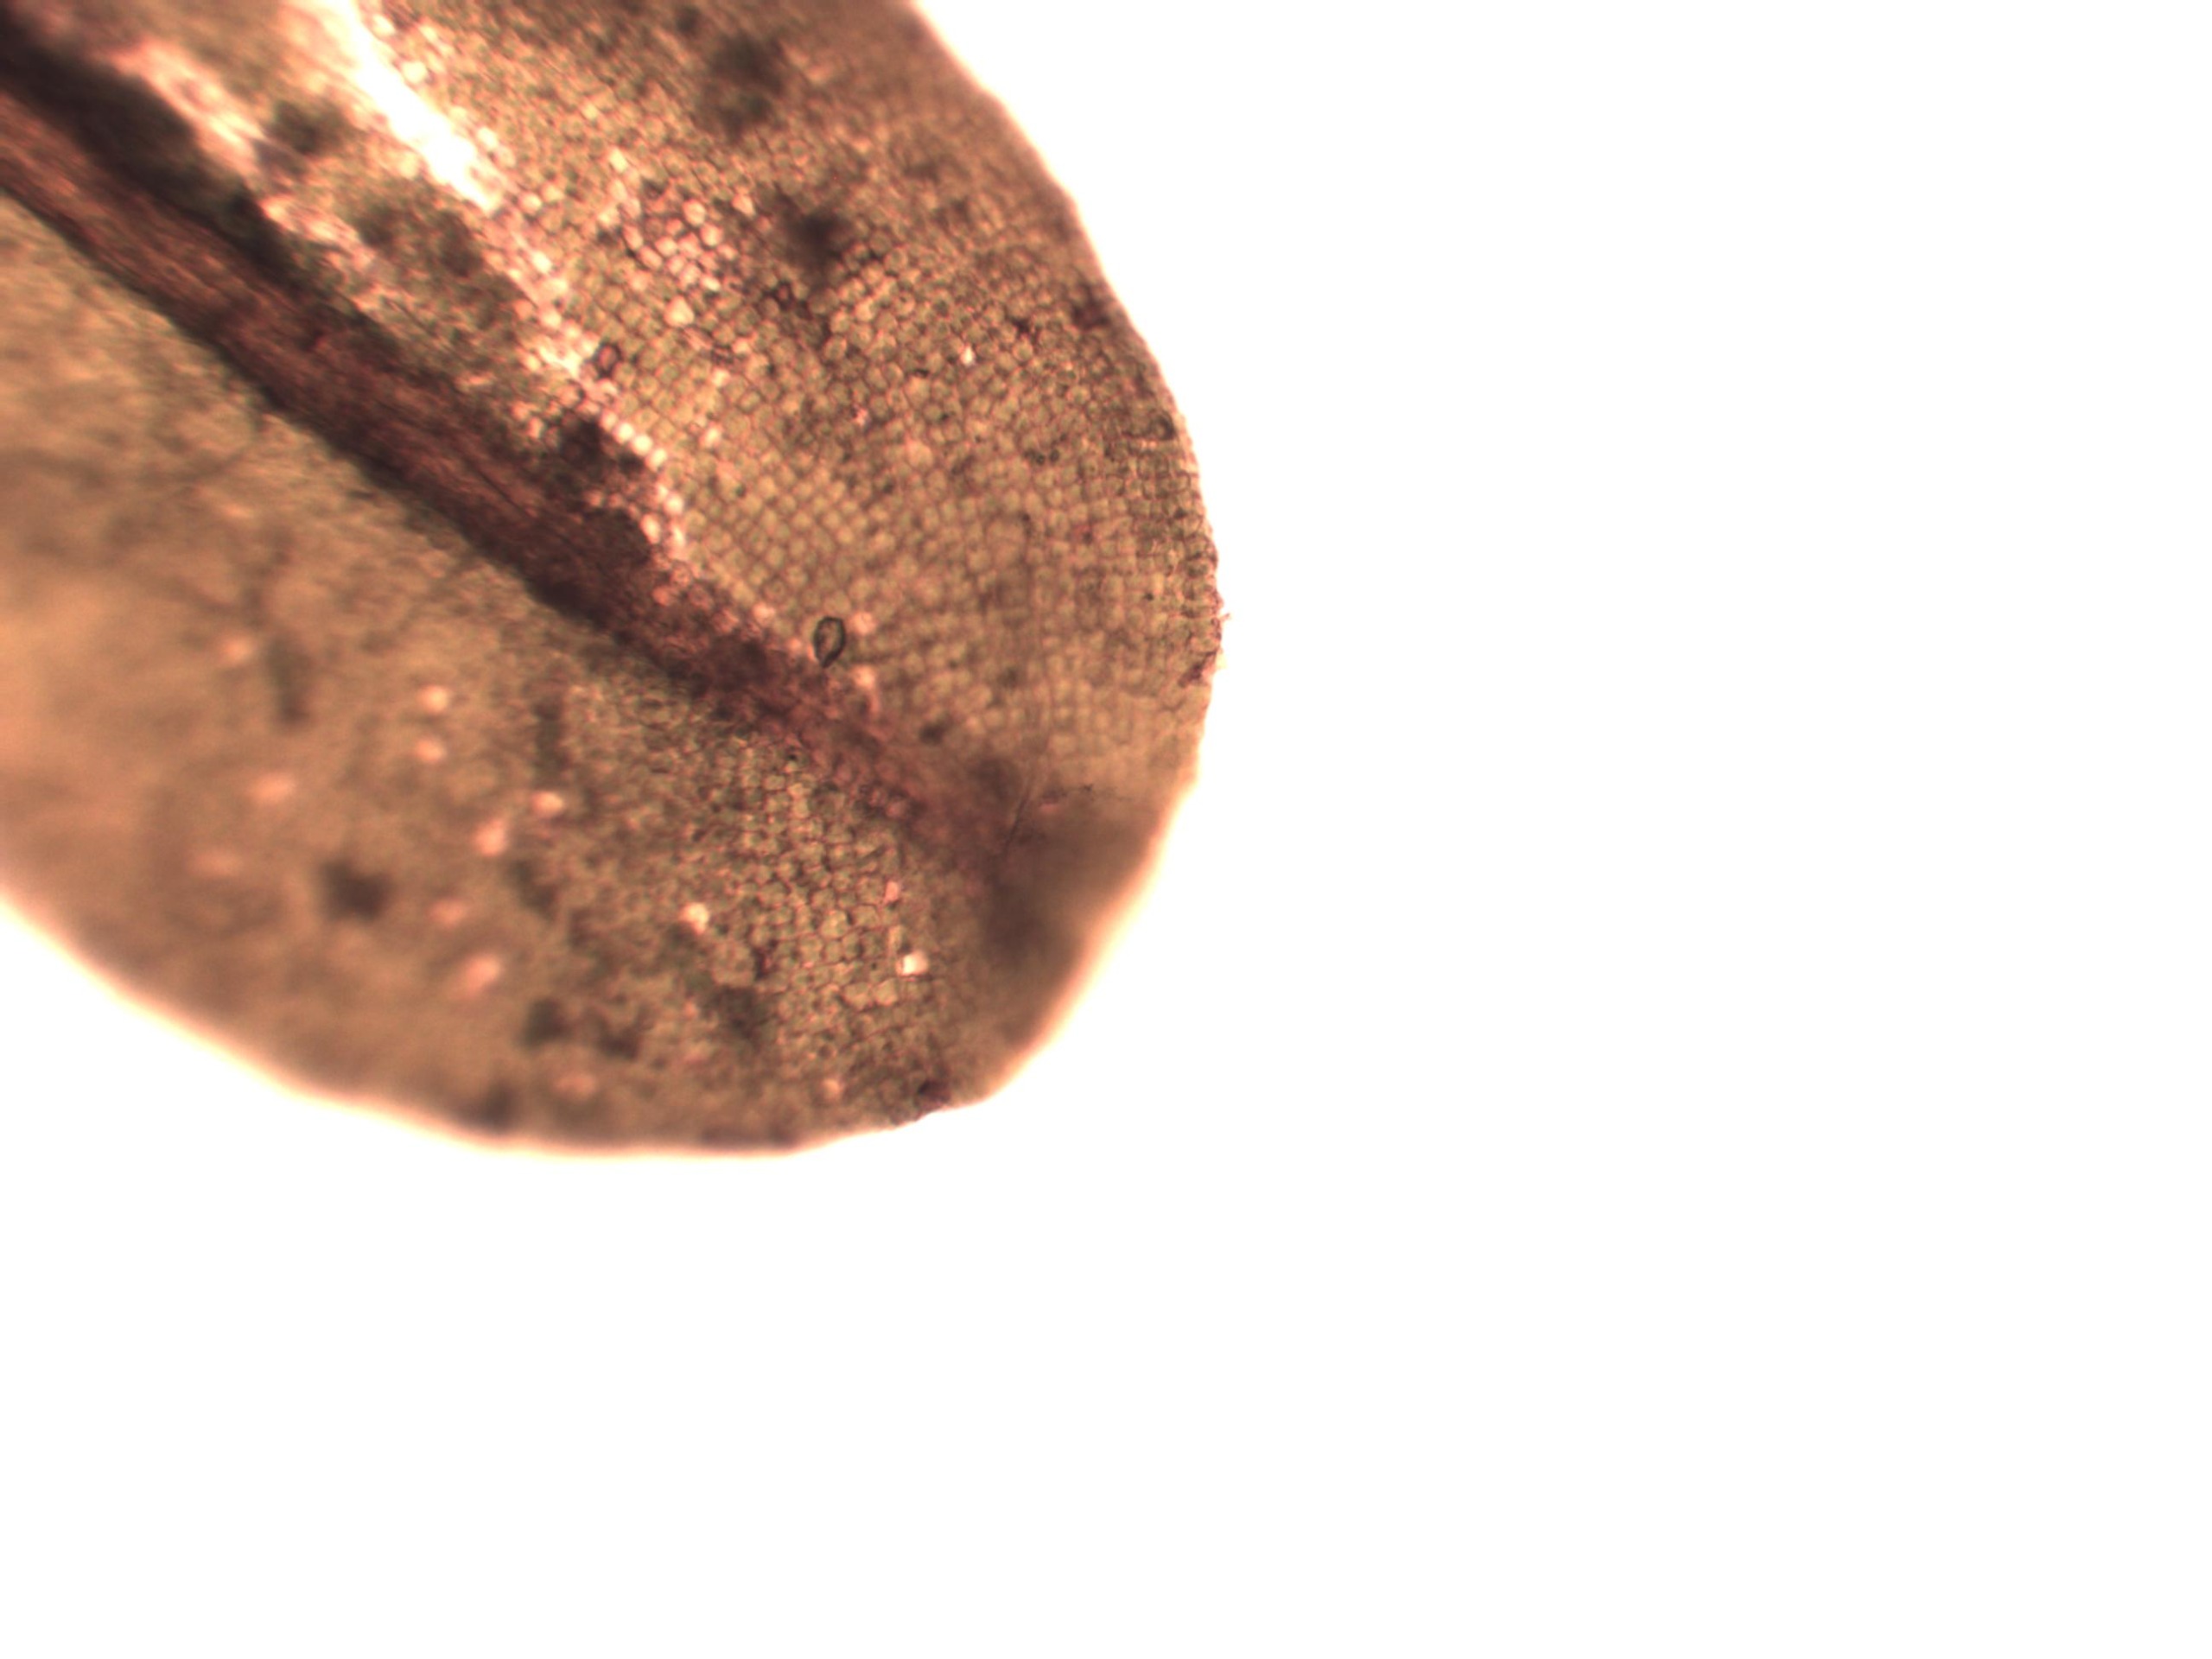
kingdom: Plantae
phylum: Bryophyta
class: Bryopsida
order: Pottiales
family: Pottiaceae
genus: Syntrichia
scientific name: Syntrichia latifolia
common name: Butbladet hårstjerne
